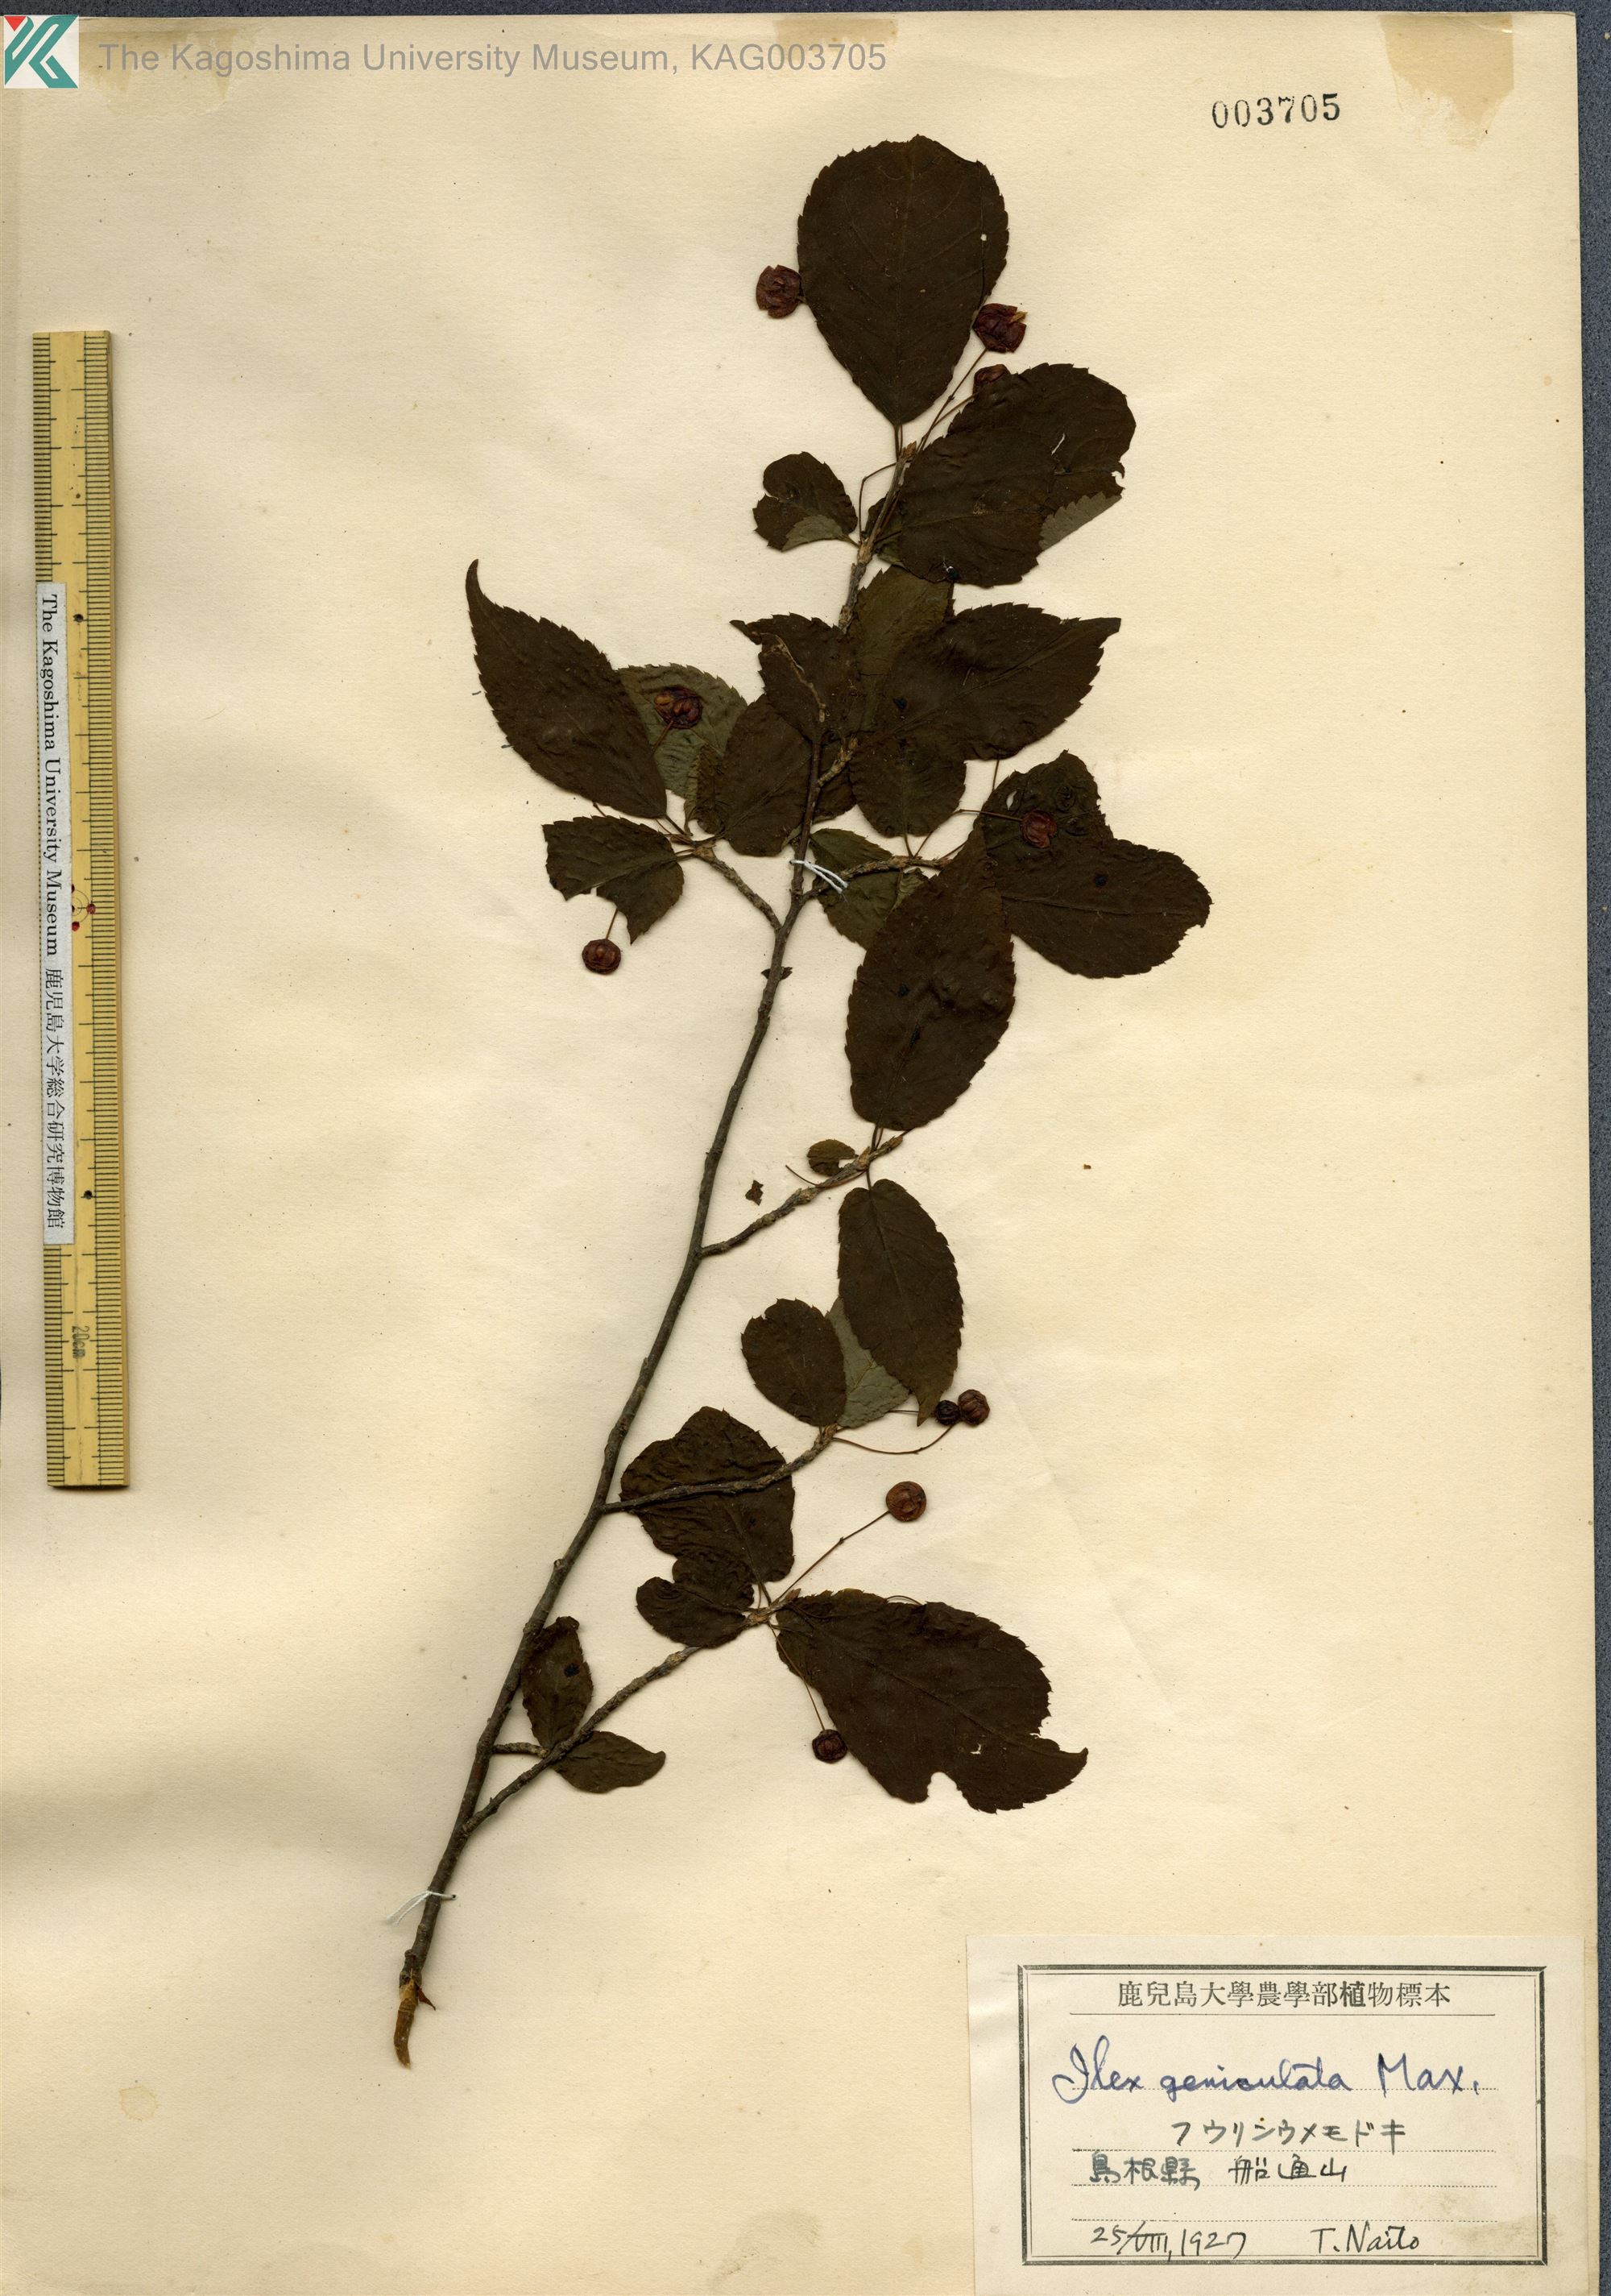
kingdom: Plantae
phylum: Tracheophyta
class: Magnoliopsida
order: Aquifoliales
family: Aquifoliaceae
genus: Ilex
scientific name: Ilex geniculata
